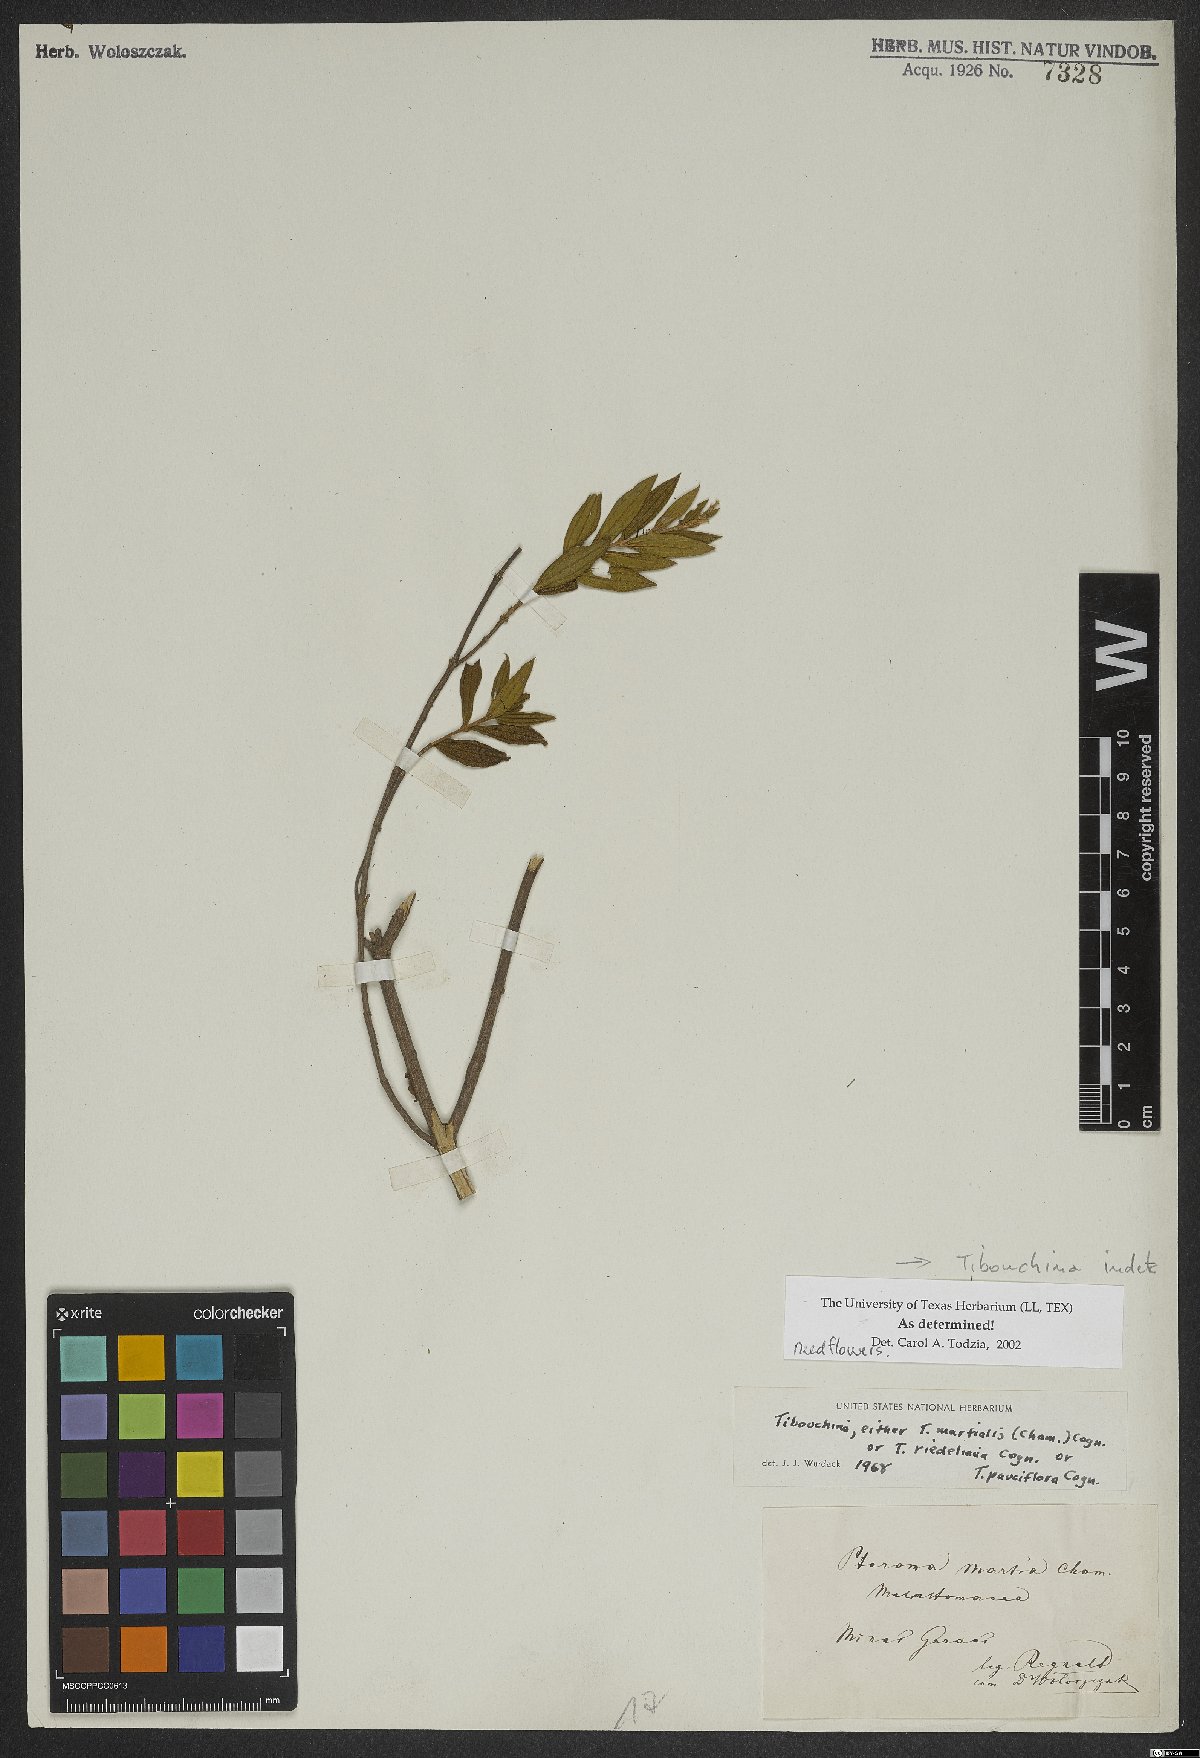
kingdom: Plantae
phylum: Tracheophyta
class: Magnoliopsida
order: Myrtales
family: Melastomataceae
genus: Tibouchina
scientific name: Tibouchina
